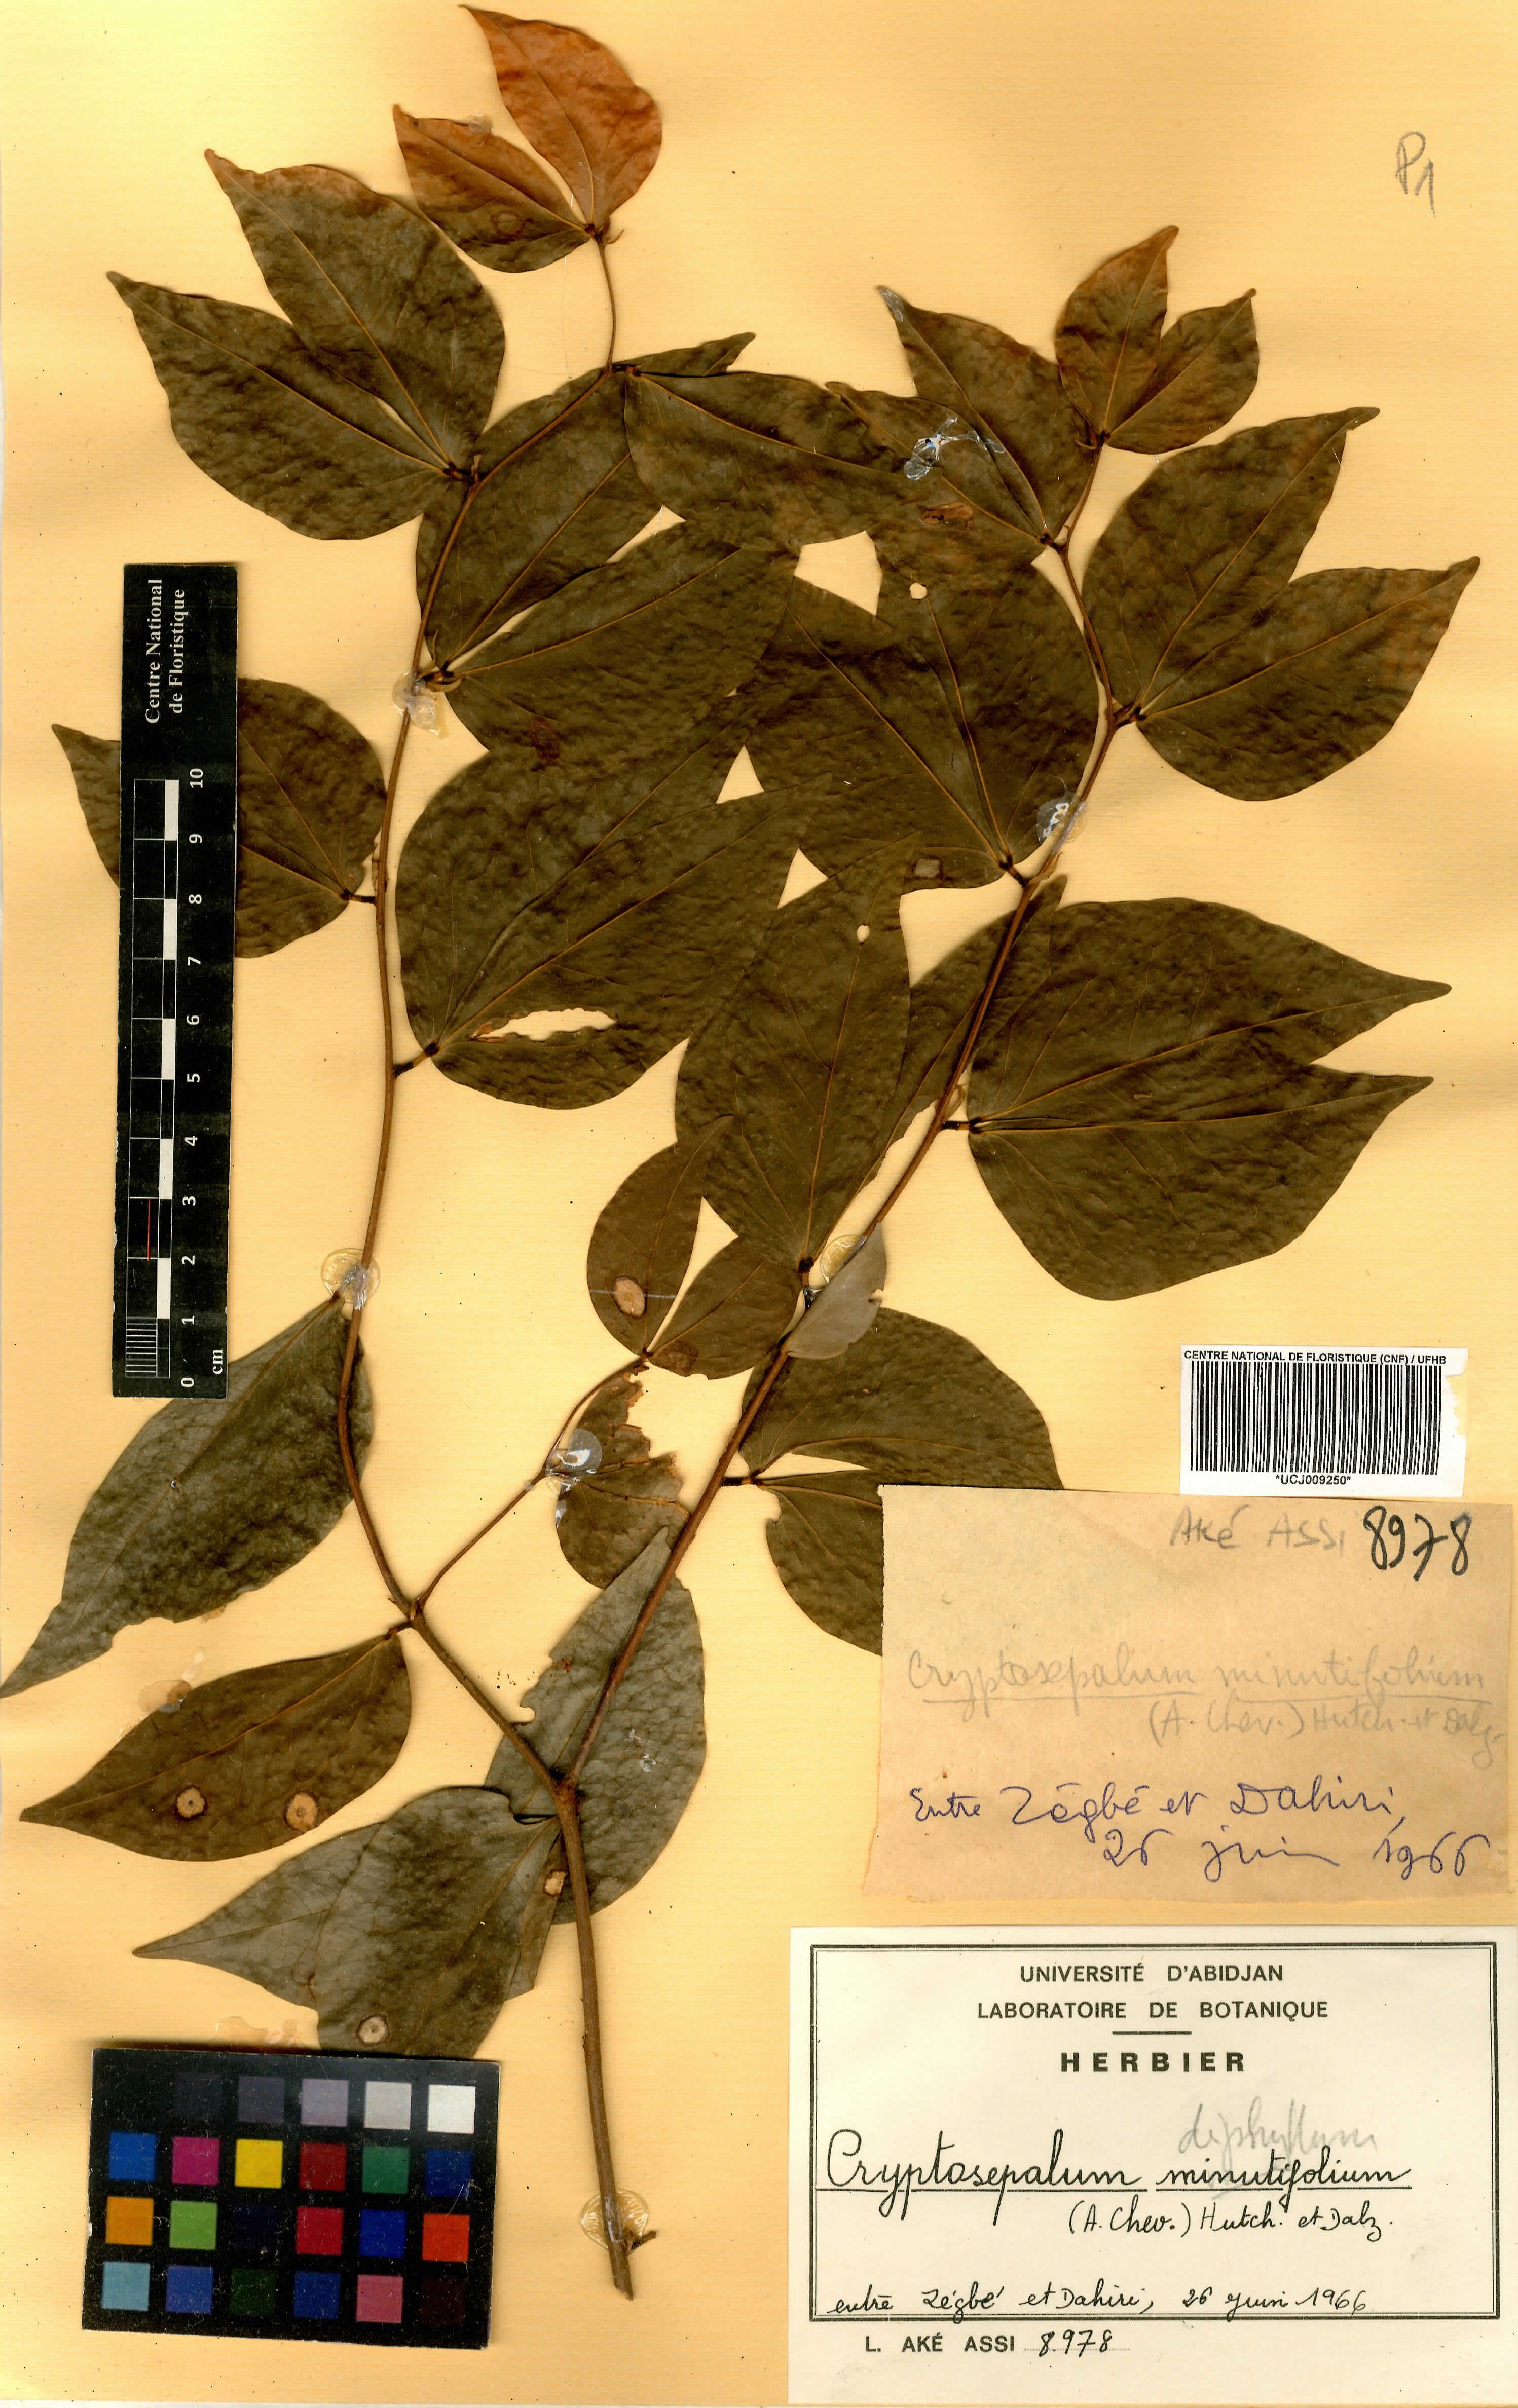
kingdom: Plantae
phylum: Tracheophyta
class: Magnoliopsida
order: Fabales
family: Fabaceae
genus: Cryptosepalum
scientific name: Cryptosepalum diphyllum
